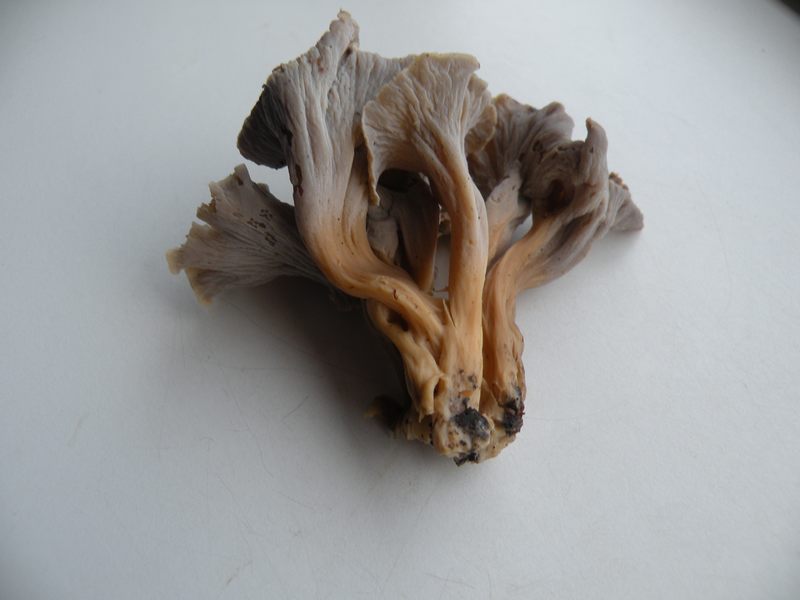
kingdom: Fungi
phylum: Basidiomycota
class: Agaricomycetes
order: Cantharellales
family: Hydnaceae
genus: Craterellus
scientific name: Craterellus undulatus
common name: liden kantarel
